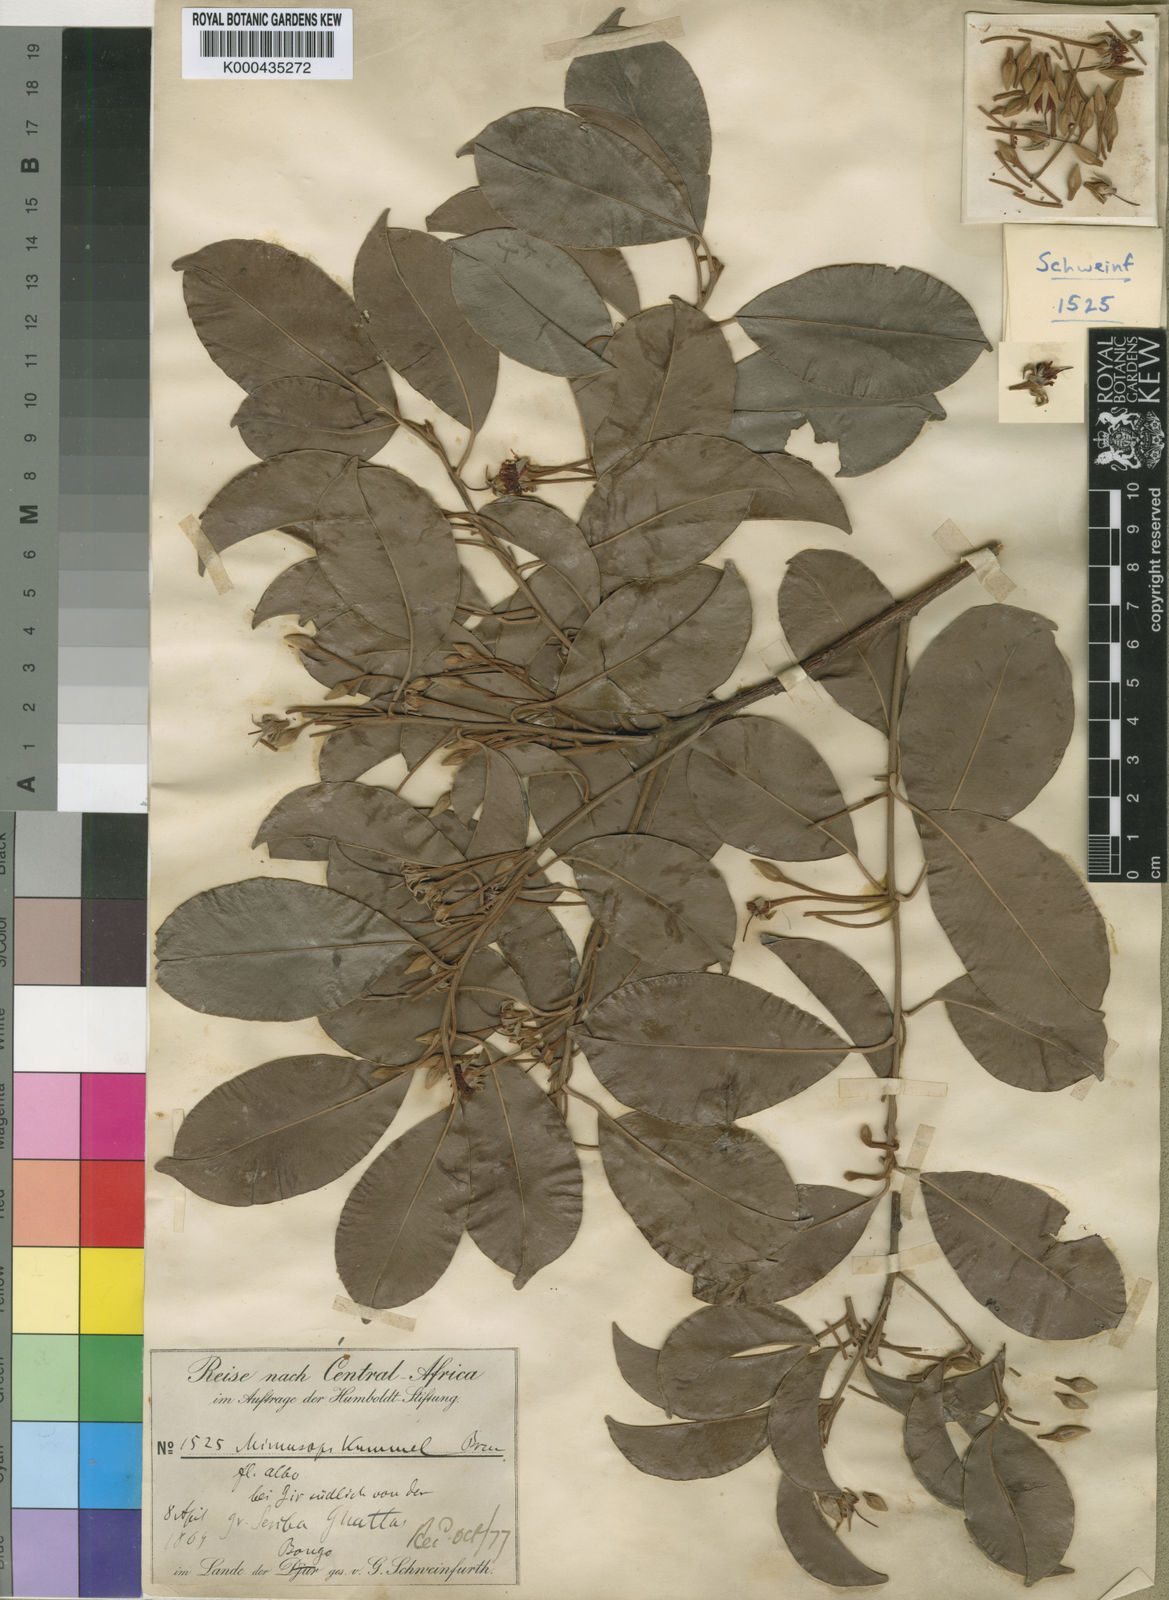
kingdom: Plantae
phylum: Tracheophyta
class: Magnoliopsida
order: Ericales
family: Sapotaceae
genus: Mimusops
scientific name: Mimusops kummel
